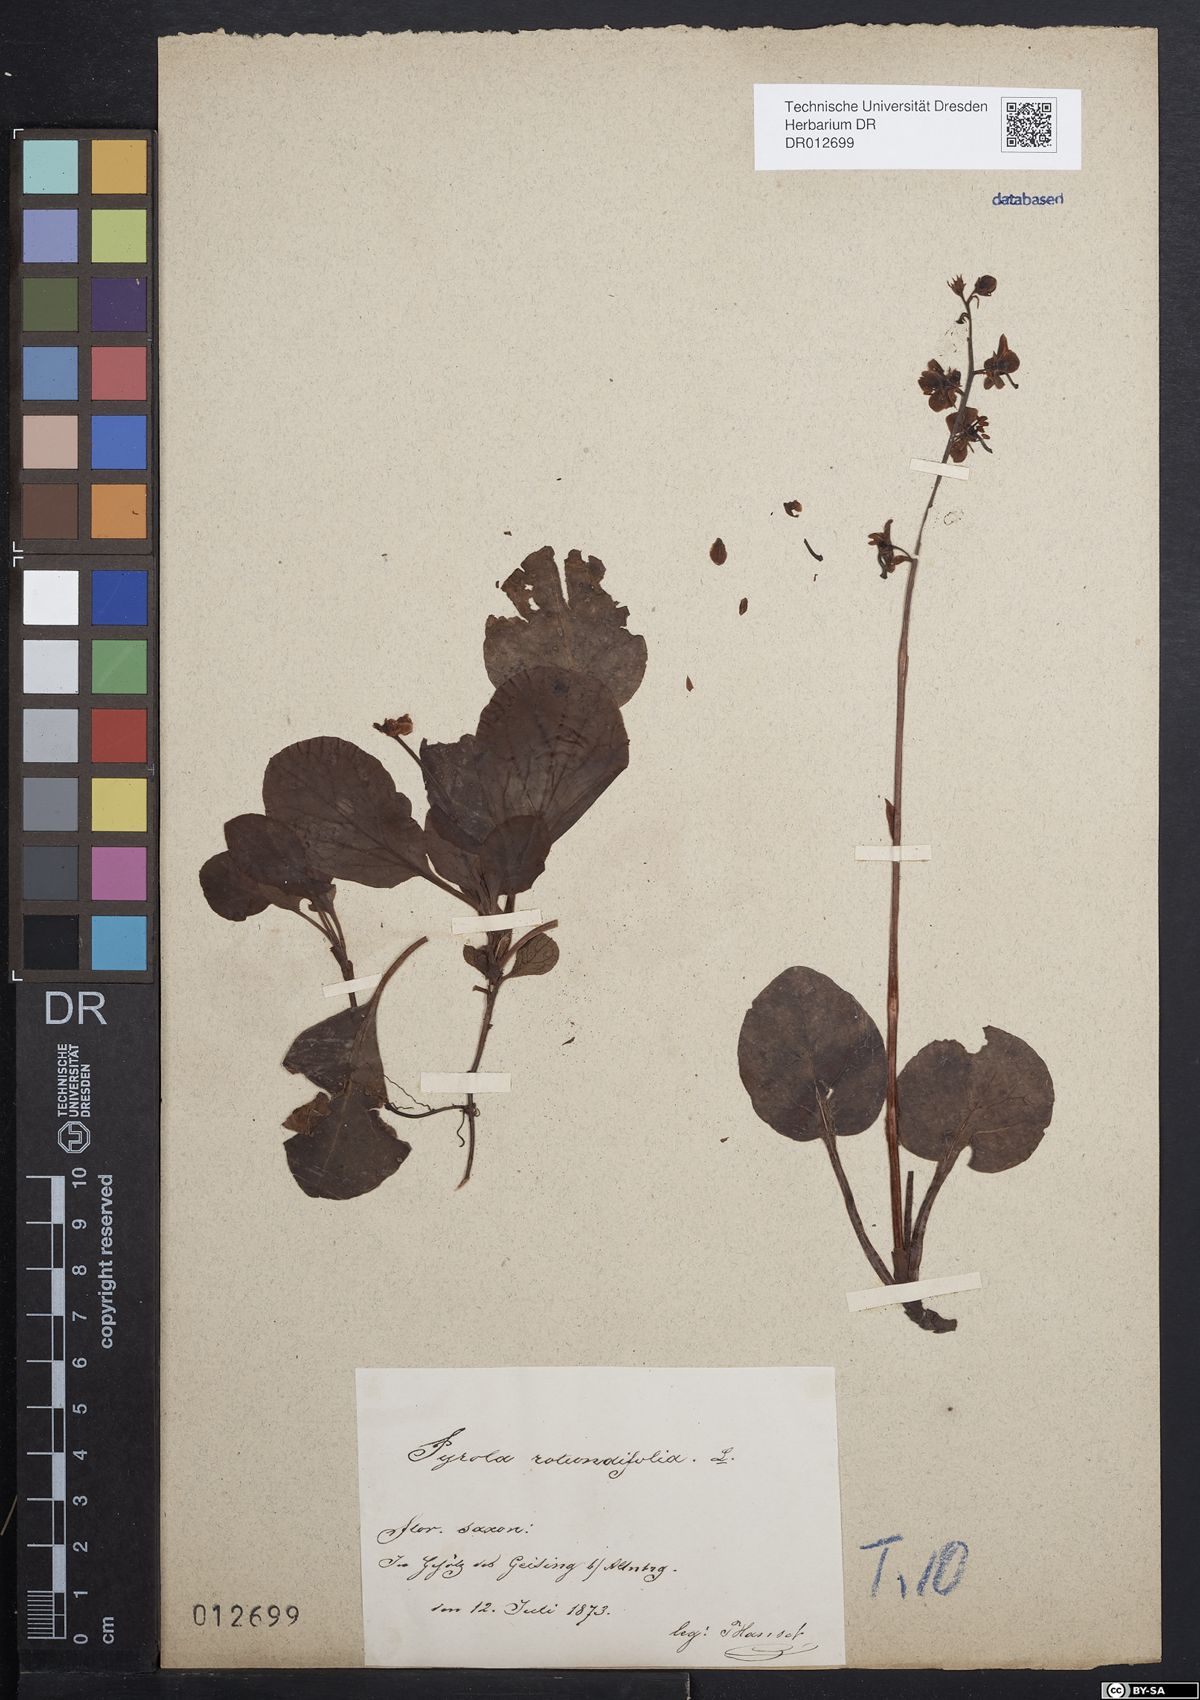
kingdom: Plantae
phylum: Tracheophyta
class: Magnoliopsida
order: Ericales
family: Ericaceae
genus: Pyrola
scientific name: Pyrola rotundifolia
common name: Round-leaved wintergreen
